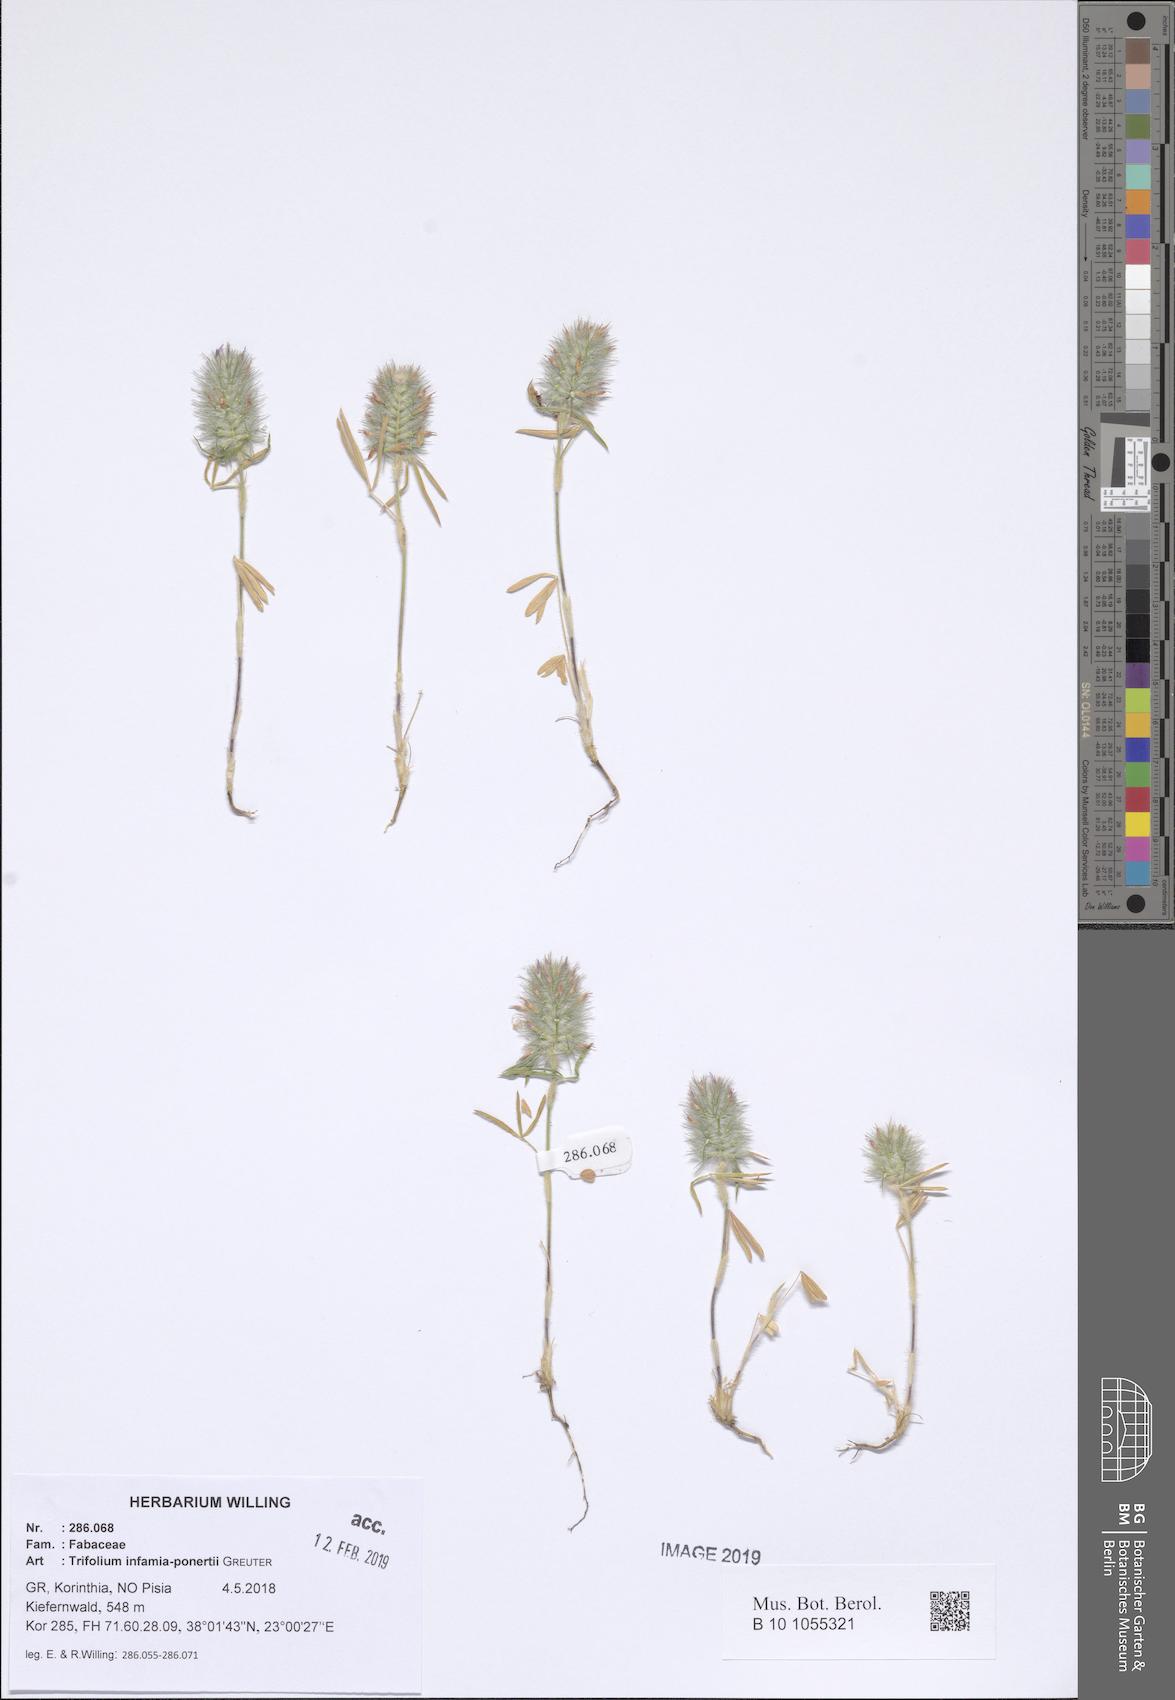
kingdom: Plantae
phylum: Tracheophyta
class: Magnoliopsida
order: Fabales
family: Fabaceae
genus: Trifolium
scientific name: Trifolium infamia-ponertii
